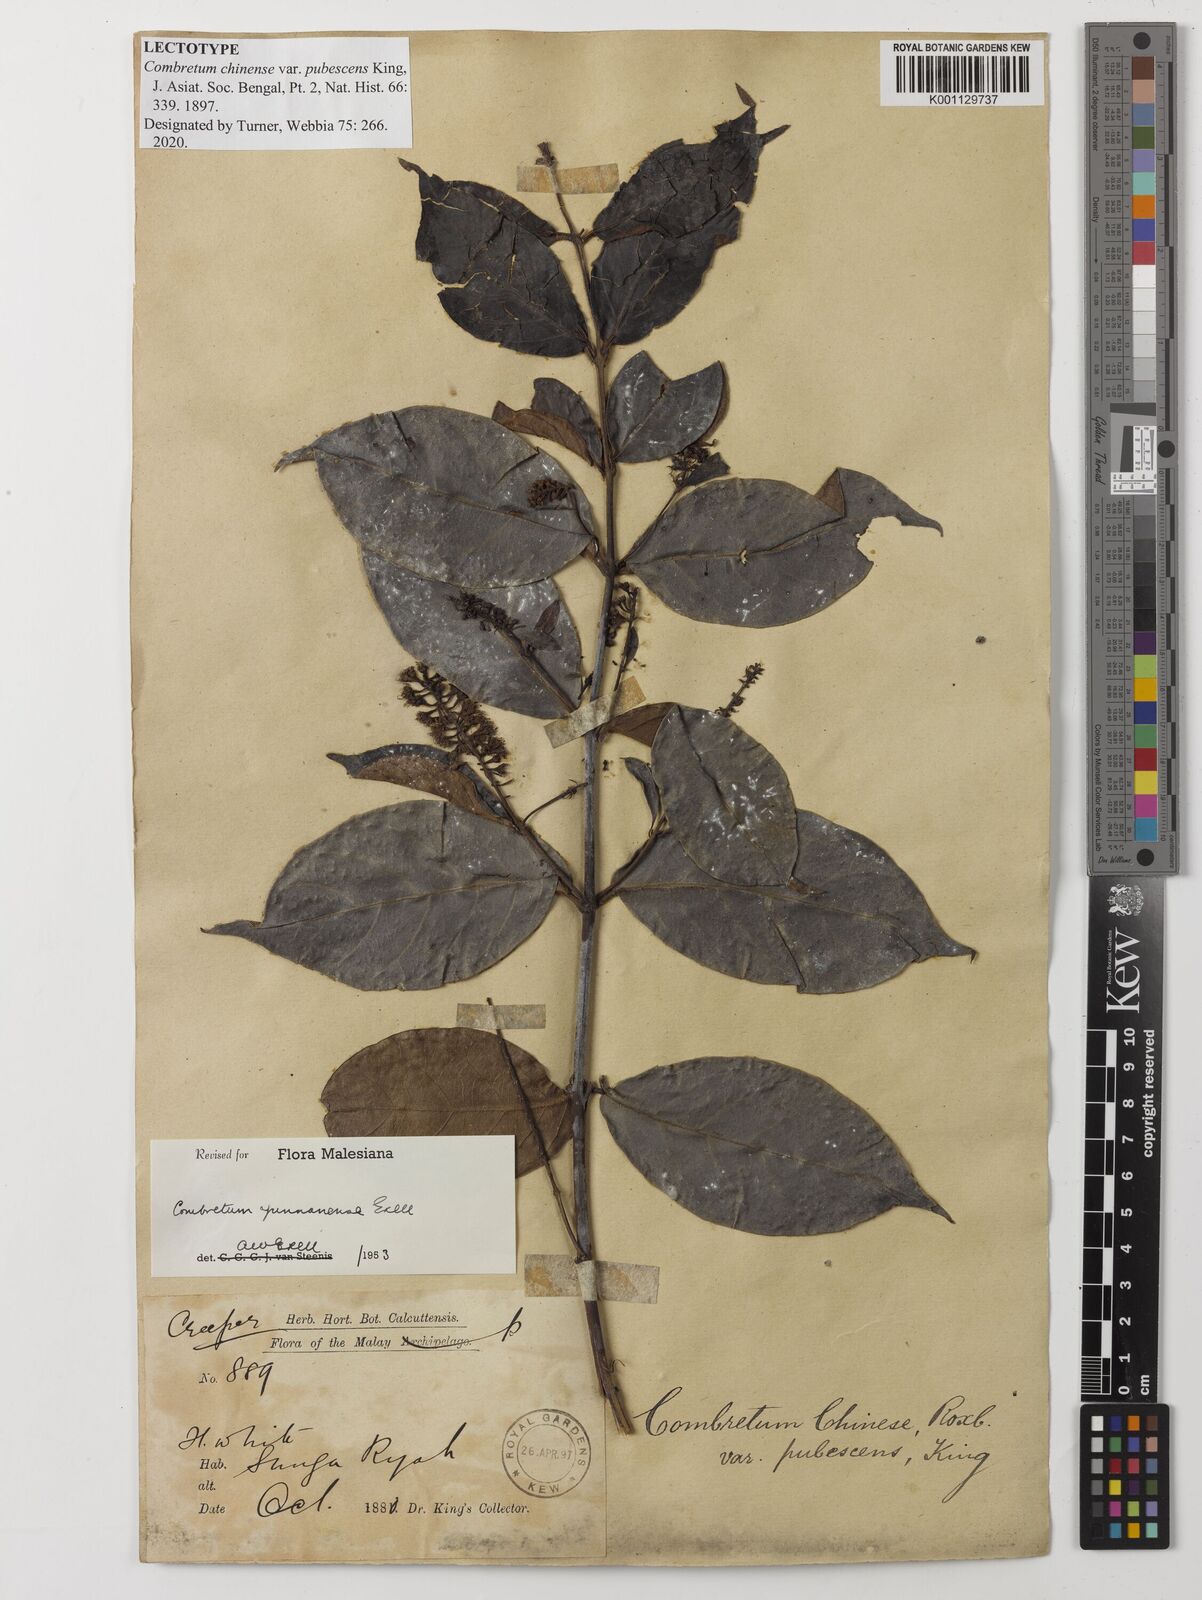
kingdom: Plantae
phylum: Tracheophyta
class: Magnoliopsida
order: Myrtales
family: Combretaceae
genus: Combretum
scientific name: Combretum chinense
